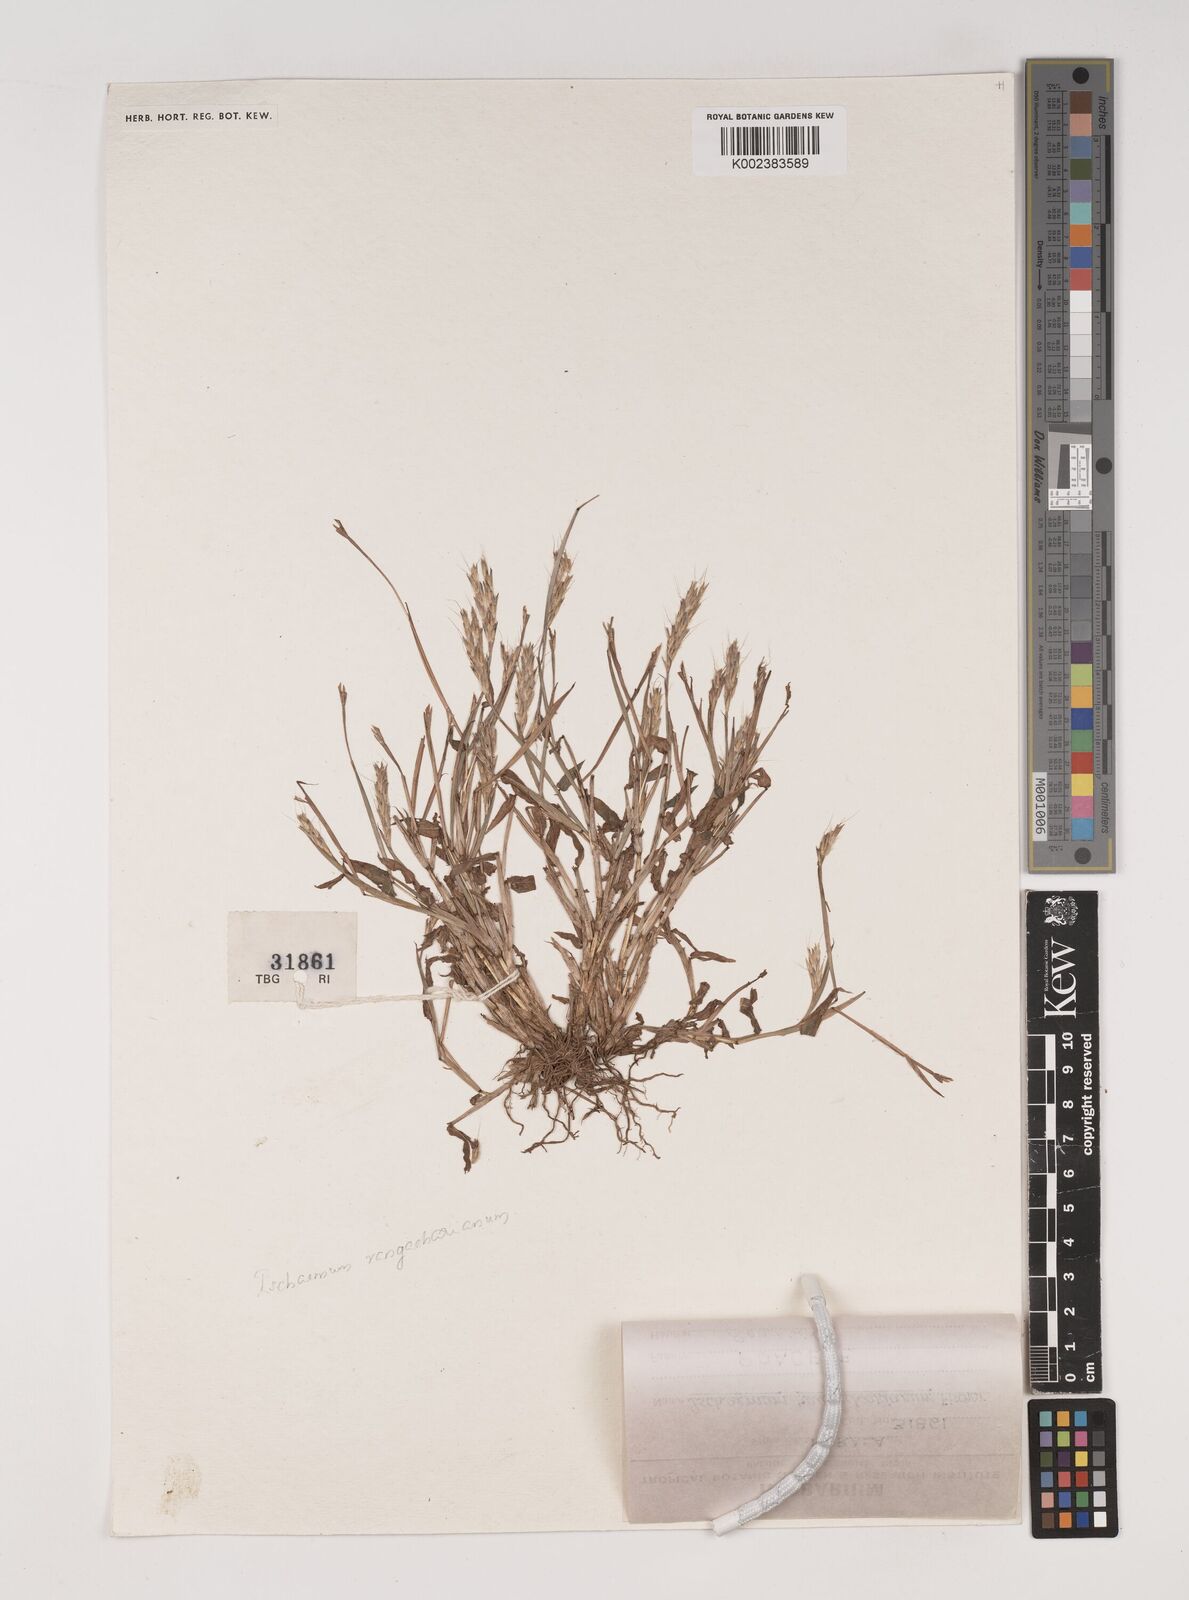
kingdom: Plantae
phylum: Tracheophyta
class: Liliopsida
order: Poales
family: Poaceae
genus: Ischaemum
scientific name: Ischaemum rangacharianum
